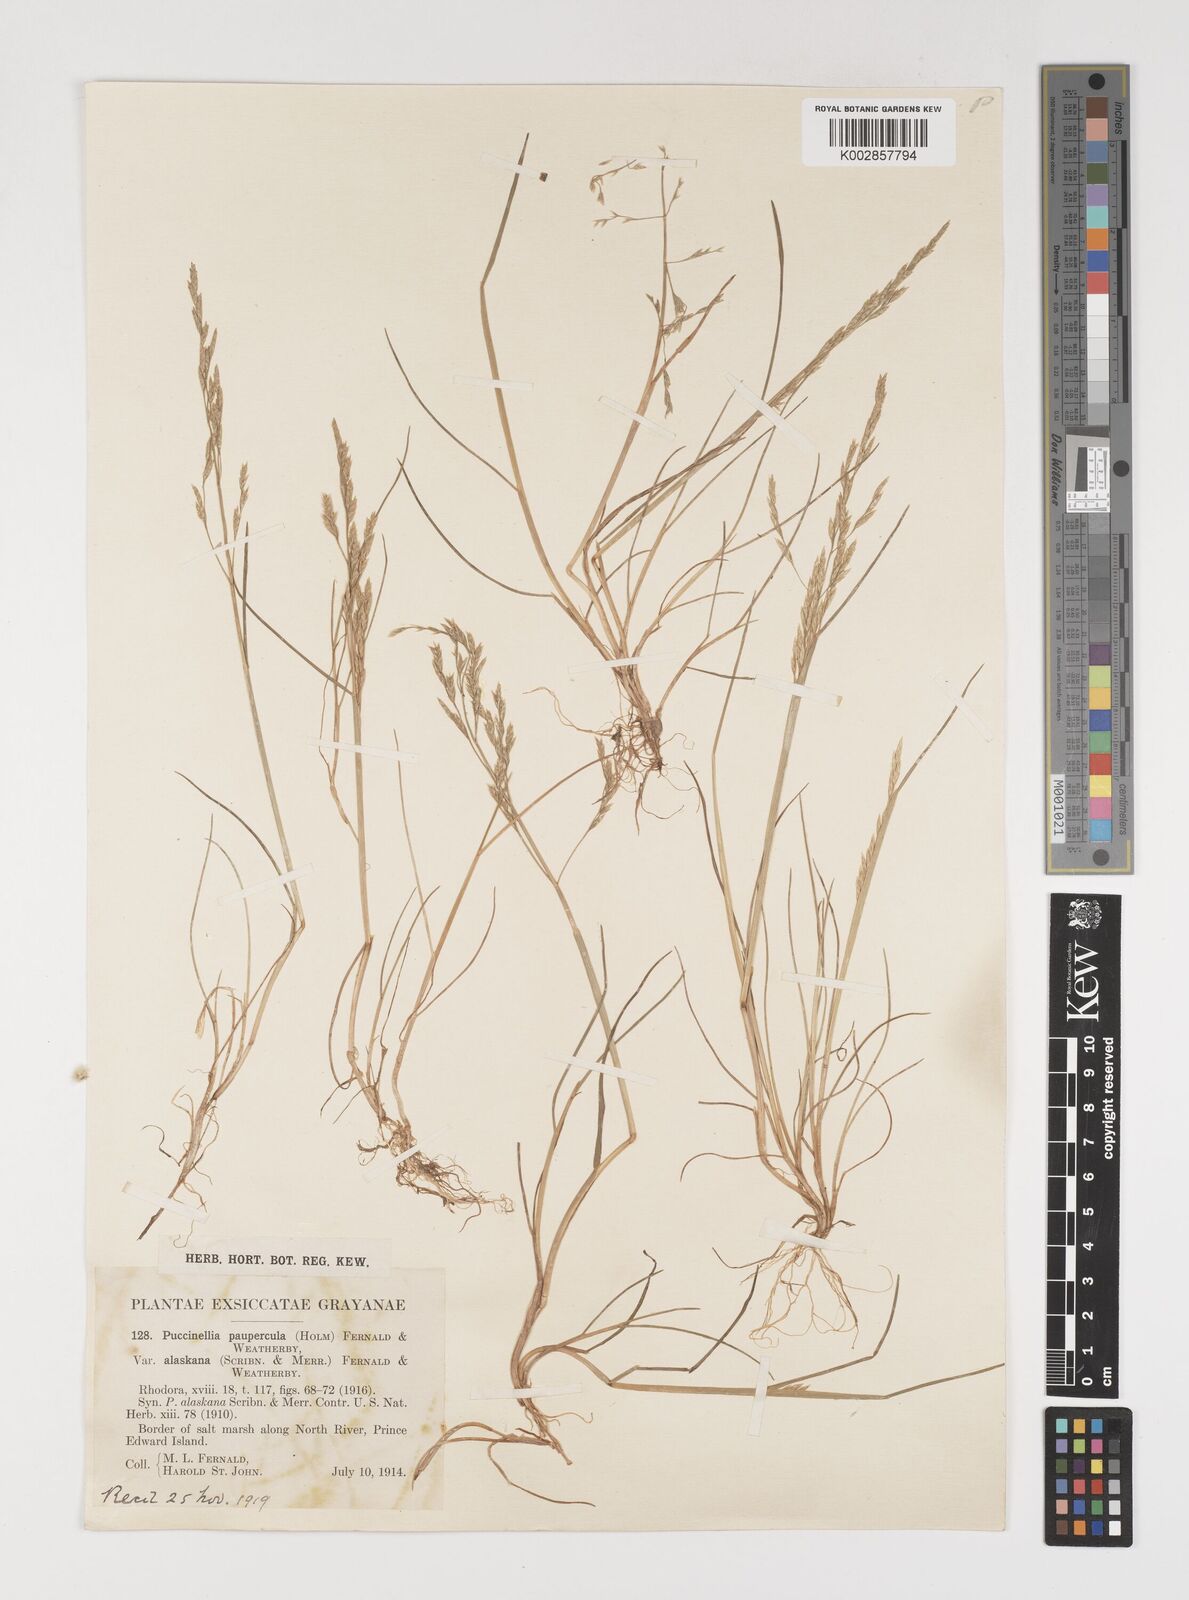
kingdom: Plantae
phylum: Tracheophyta
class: Liliopsida
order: Poales
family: Poaceae
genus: Puccinellia
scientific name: Puccinellia pumila
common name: Dwarf alkaligrass
